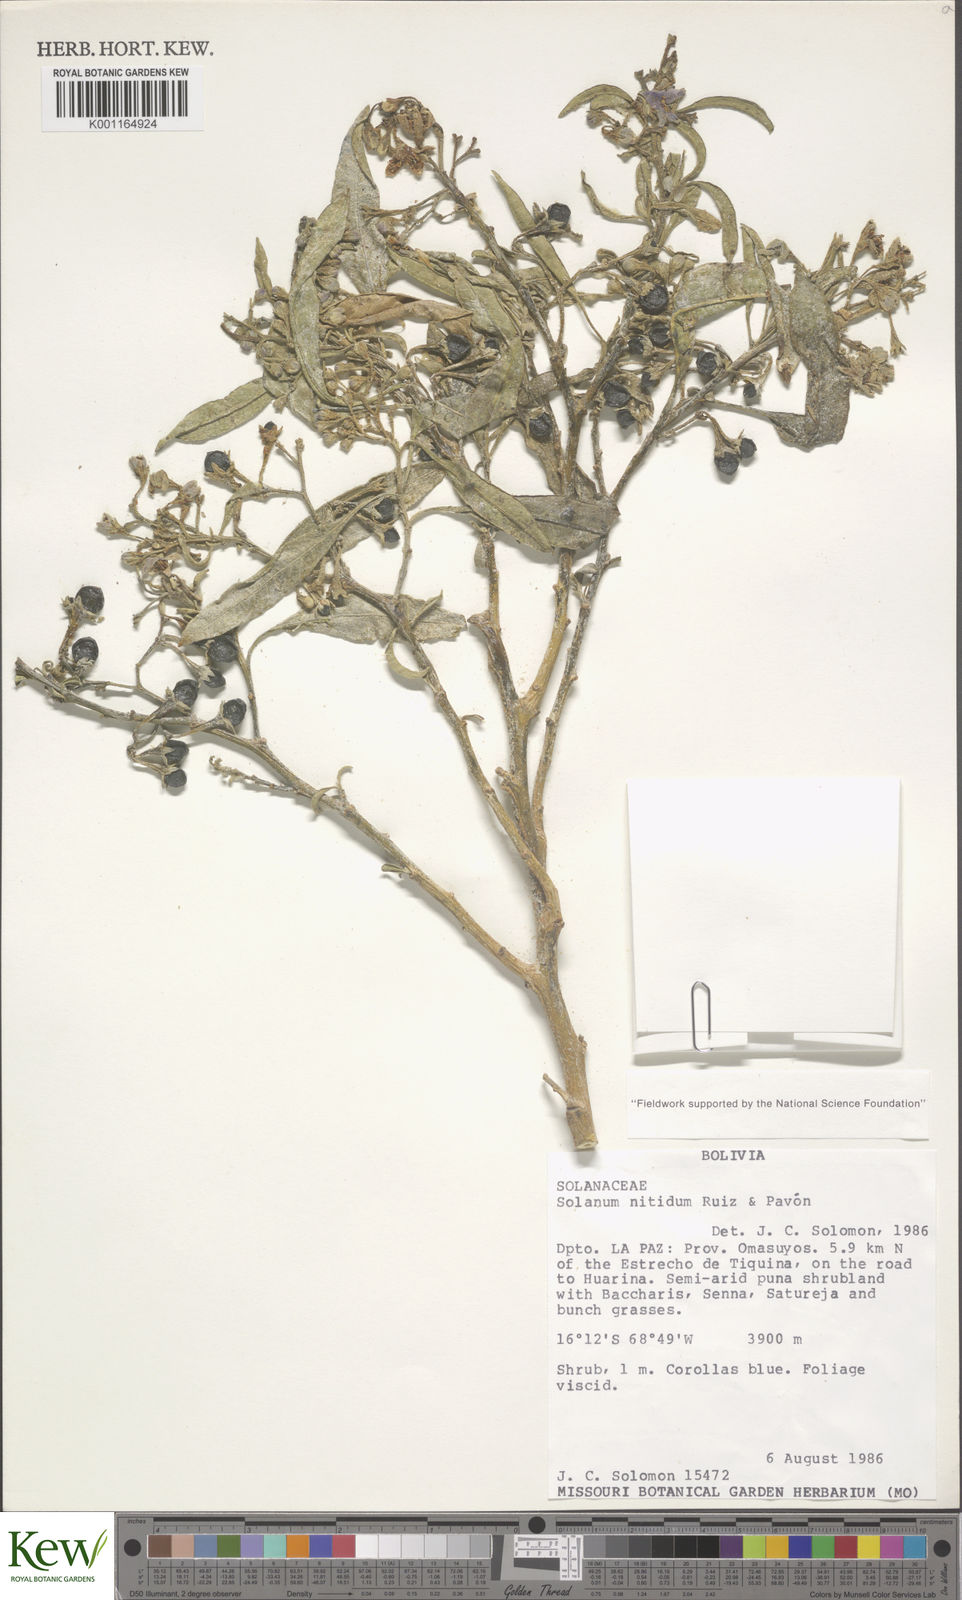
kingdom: Plantae
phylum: Tracheophyta
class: Magnoliopsida
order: Solanales
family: Solanaceae
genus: Solanum
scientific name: Solanum nitidum
